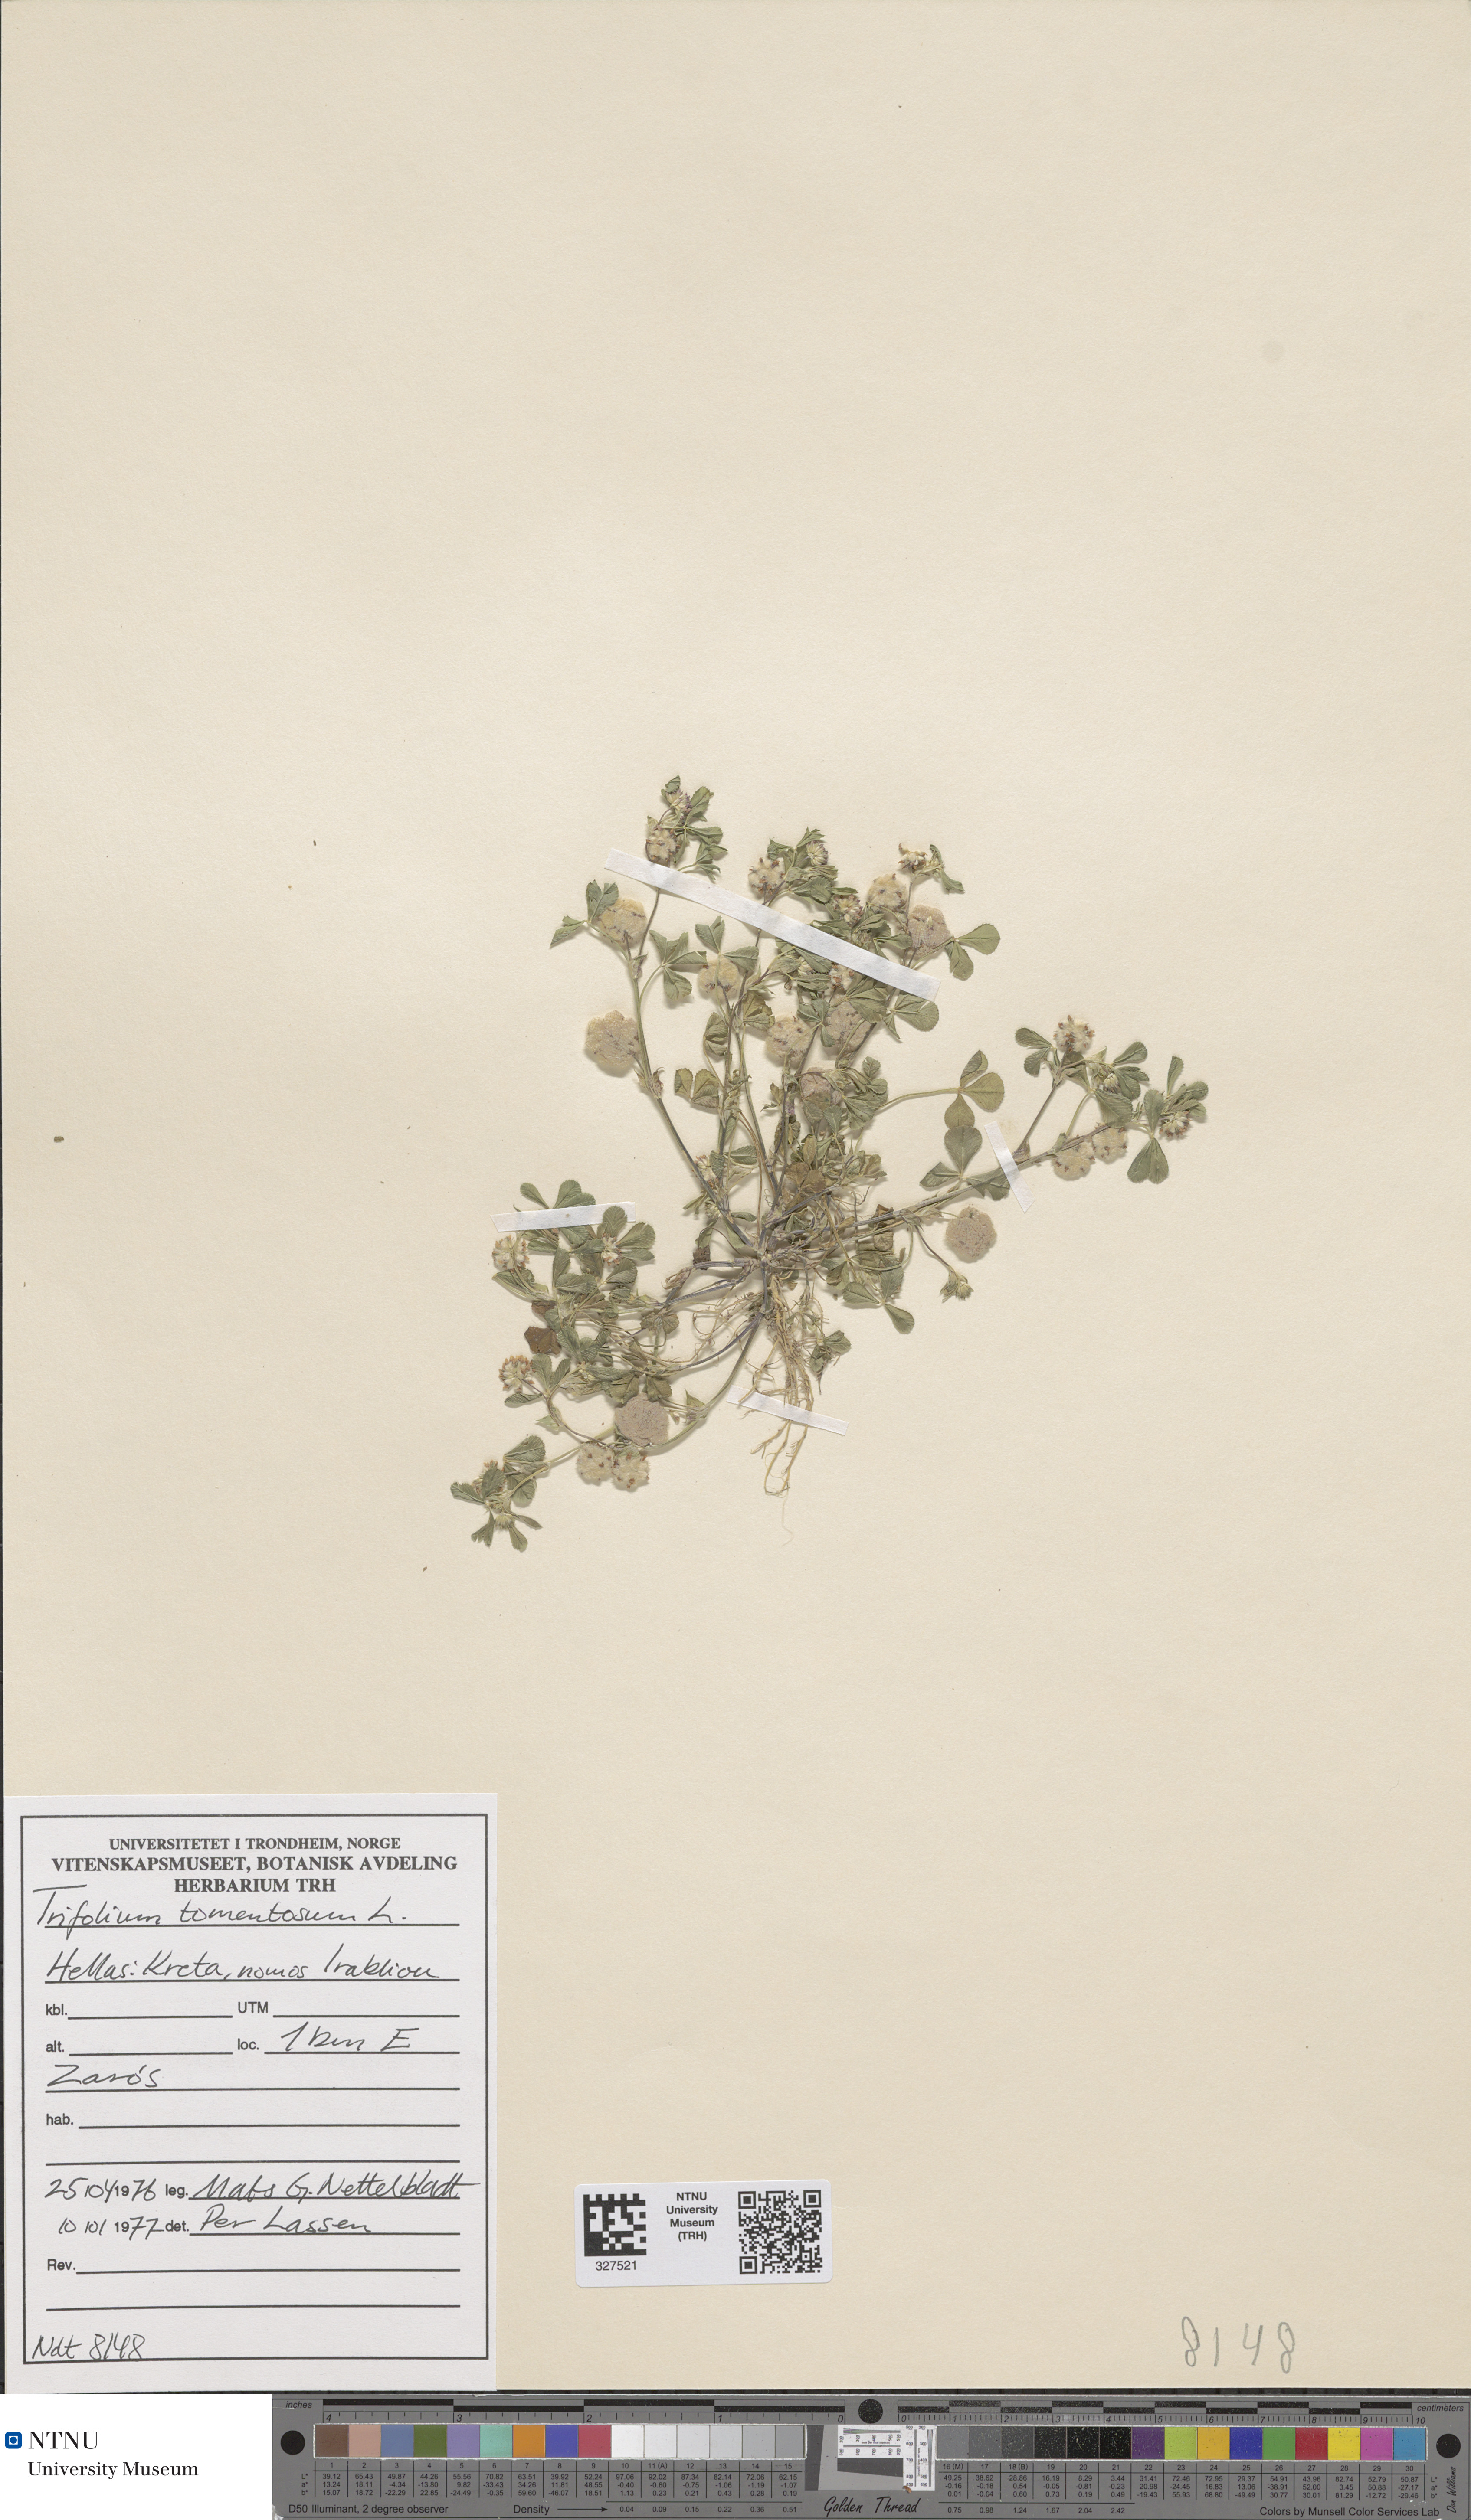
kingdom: Plantae
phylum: Tracheophyta
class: Magnoliopsida
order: Fabales
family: Fabaceae
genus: Trifolium
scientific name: Trifolium tomentosum
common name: Woolly clover
